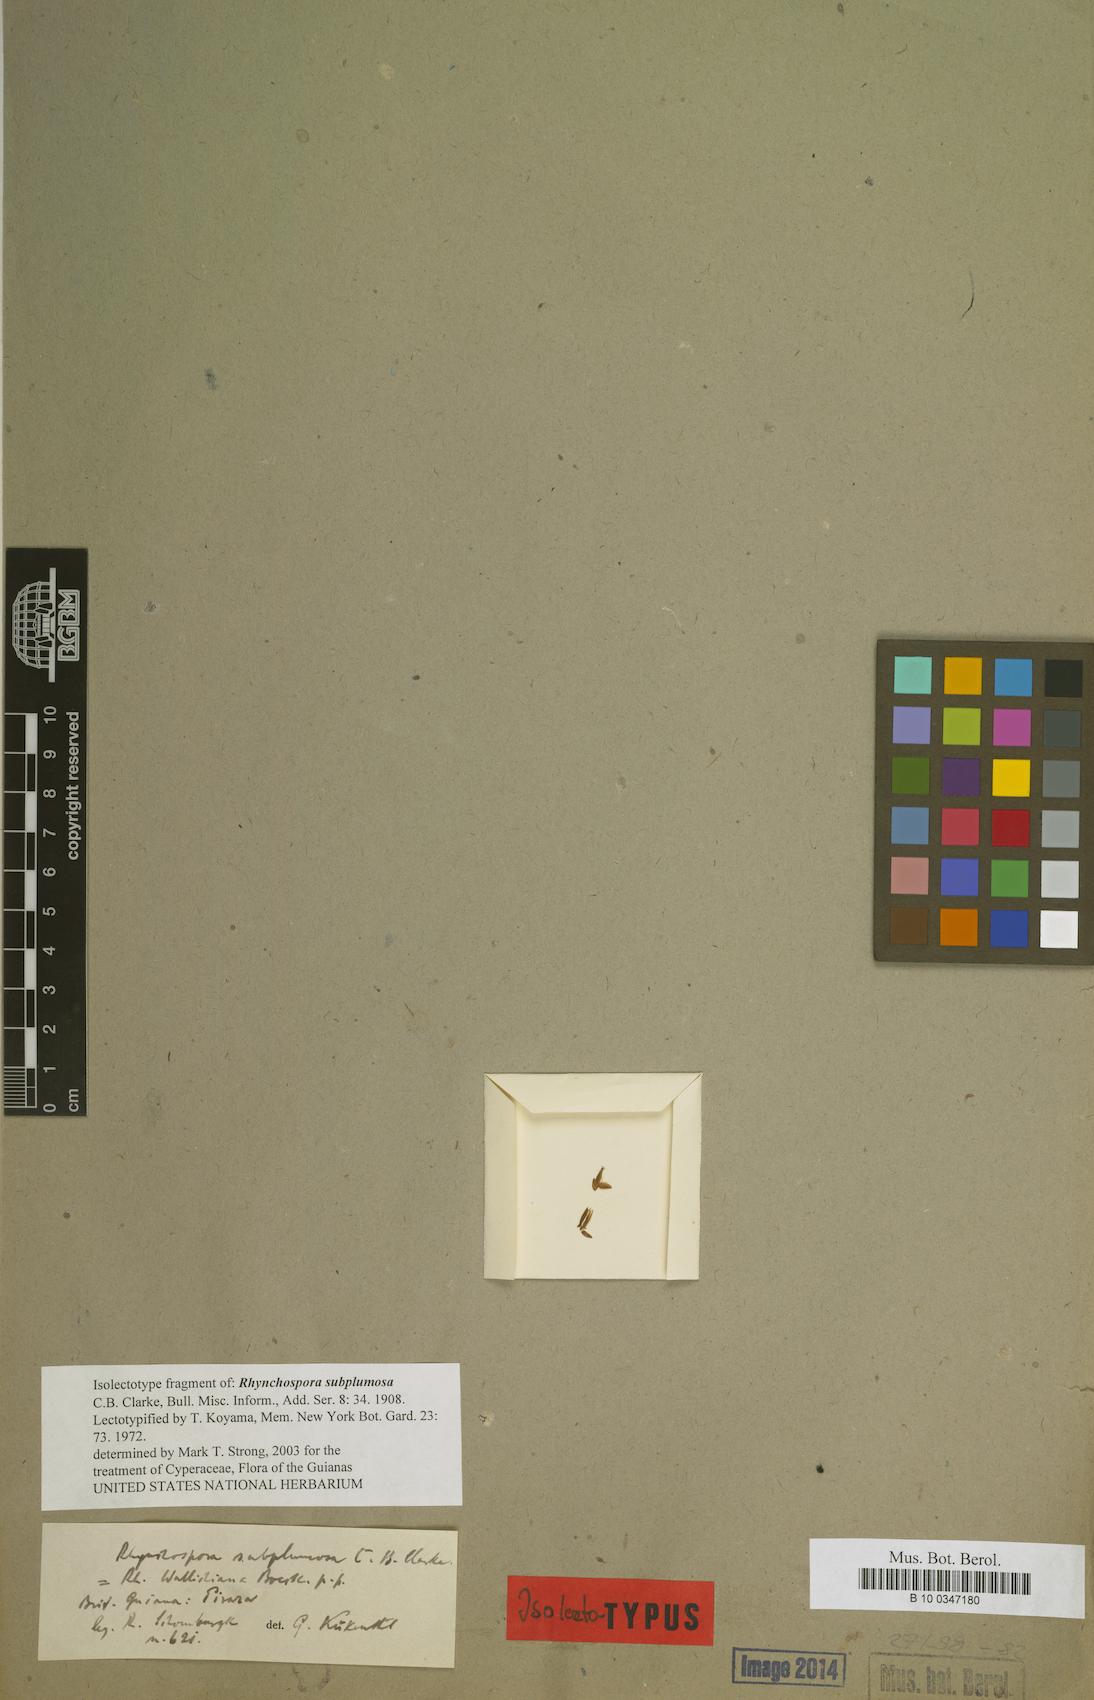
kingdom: Plantae
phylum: Tracheophyta
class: Liliopsida
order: Poales
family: Cyperaceae
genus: Rhynchospora
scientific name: Rhynchospora subplumosa
